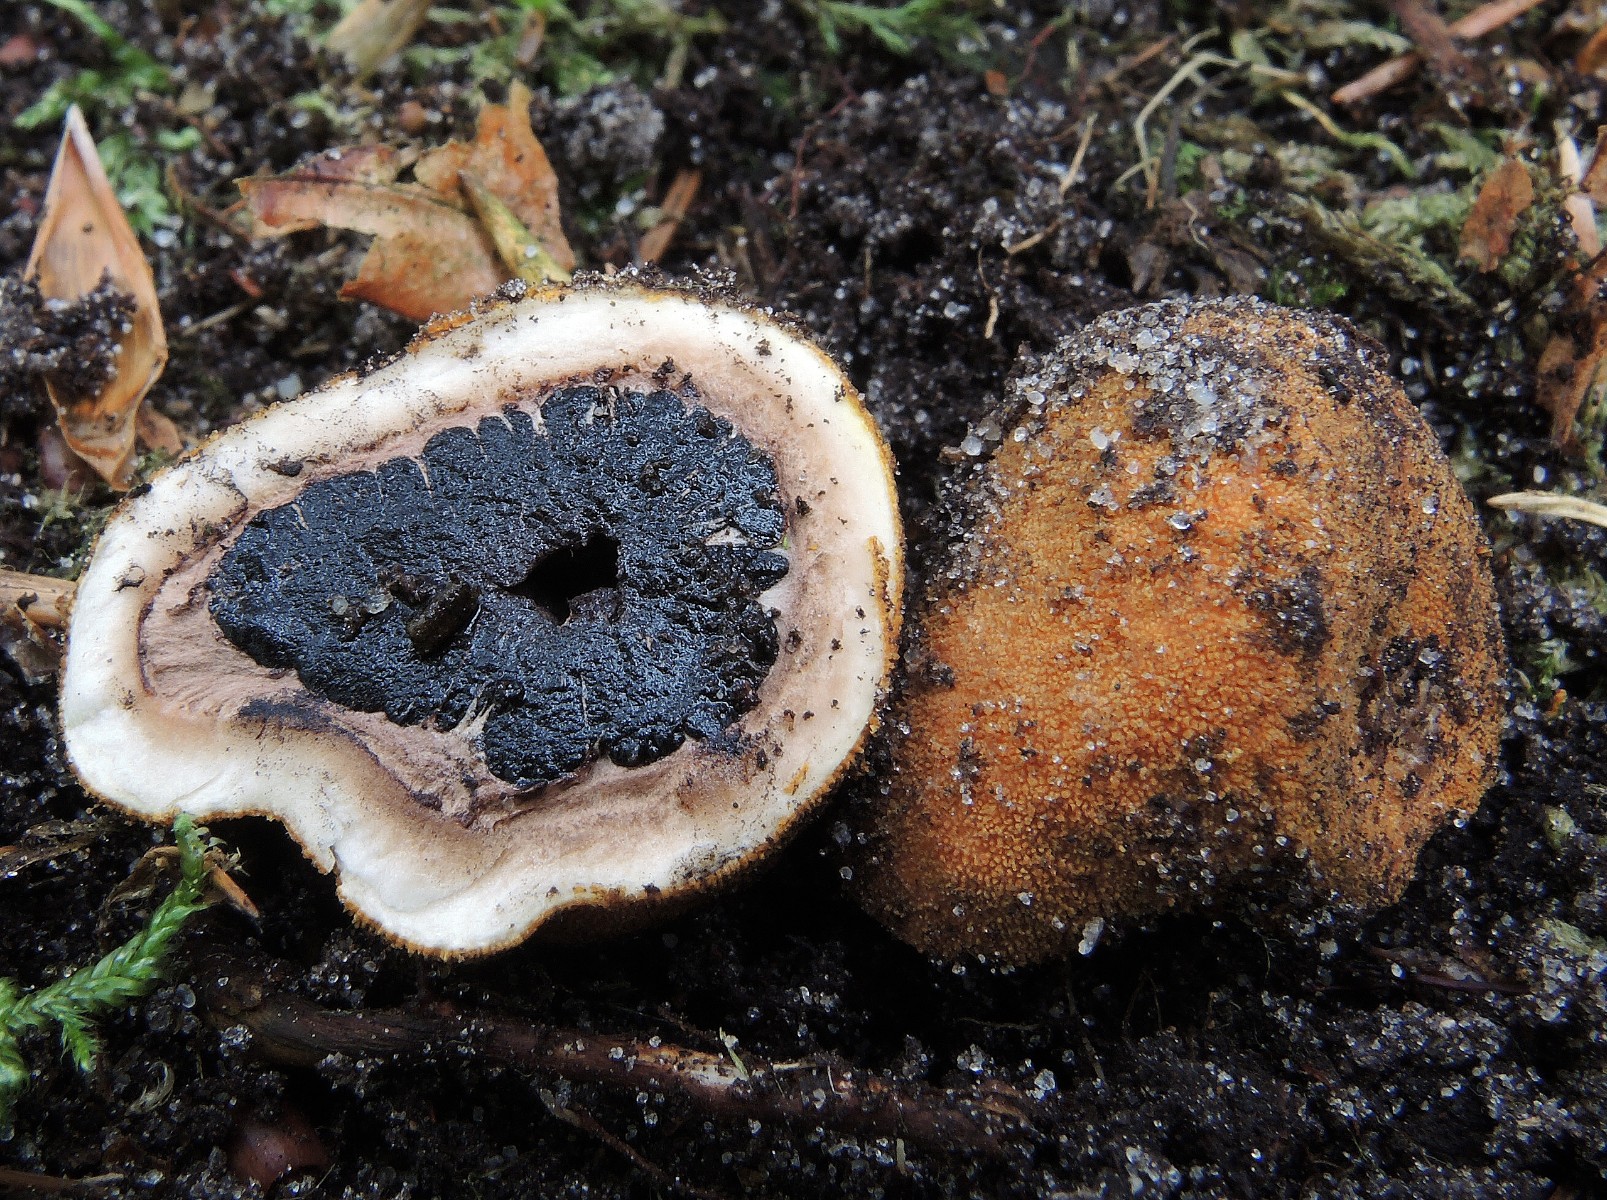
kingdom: Fungi
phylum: Ascomycota
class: Eurotiomycetes
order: Eurotiales
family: Elaphomycetaceae
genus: Elaphomyces
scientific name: Elaphomyces granulatus
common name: grynet hjortetrøffel
